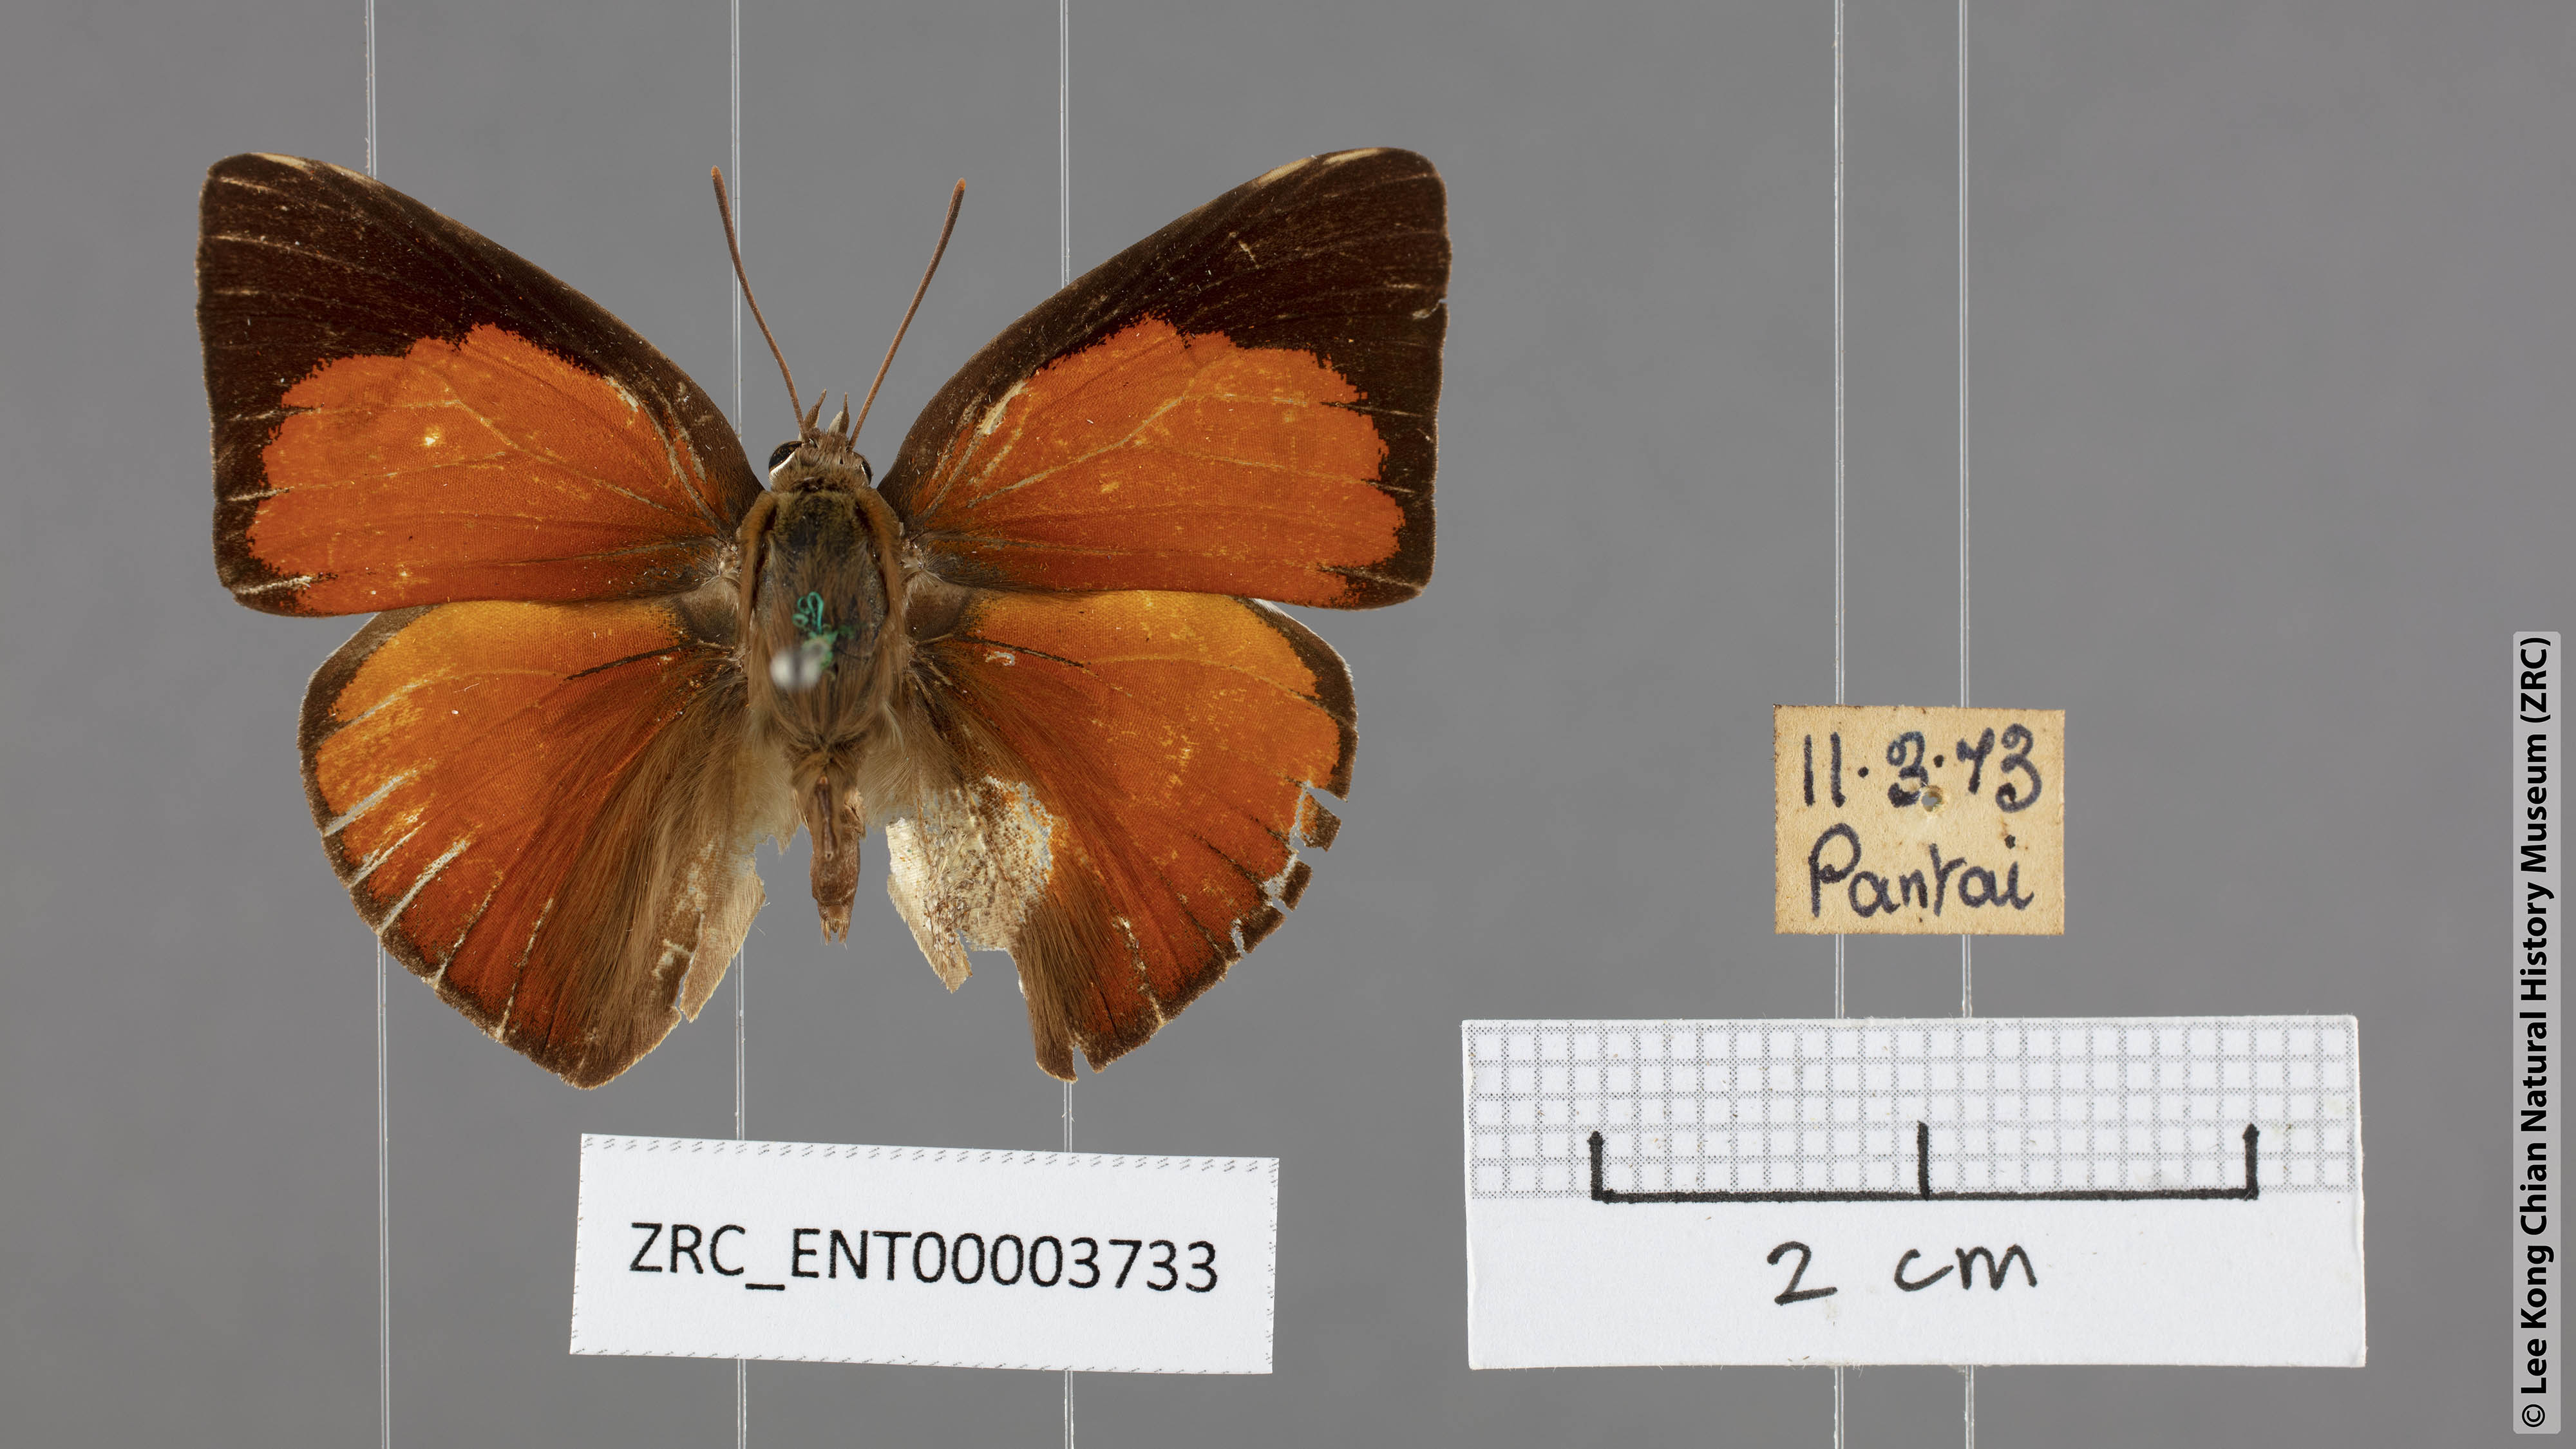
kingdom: Animalia
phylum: Arthropoda
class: Insecta
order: Lepidoptera
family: Lycaenidae
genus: Curetis
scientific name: Curetis felderi
